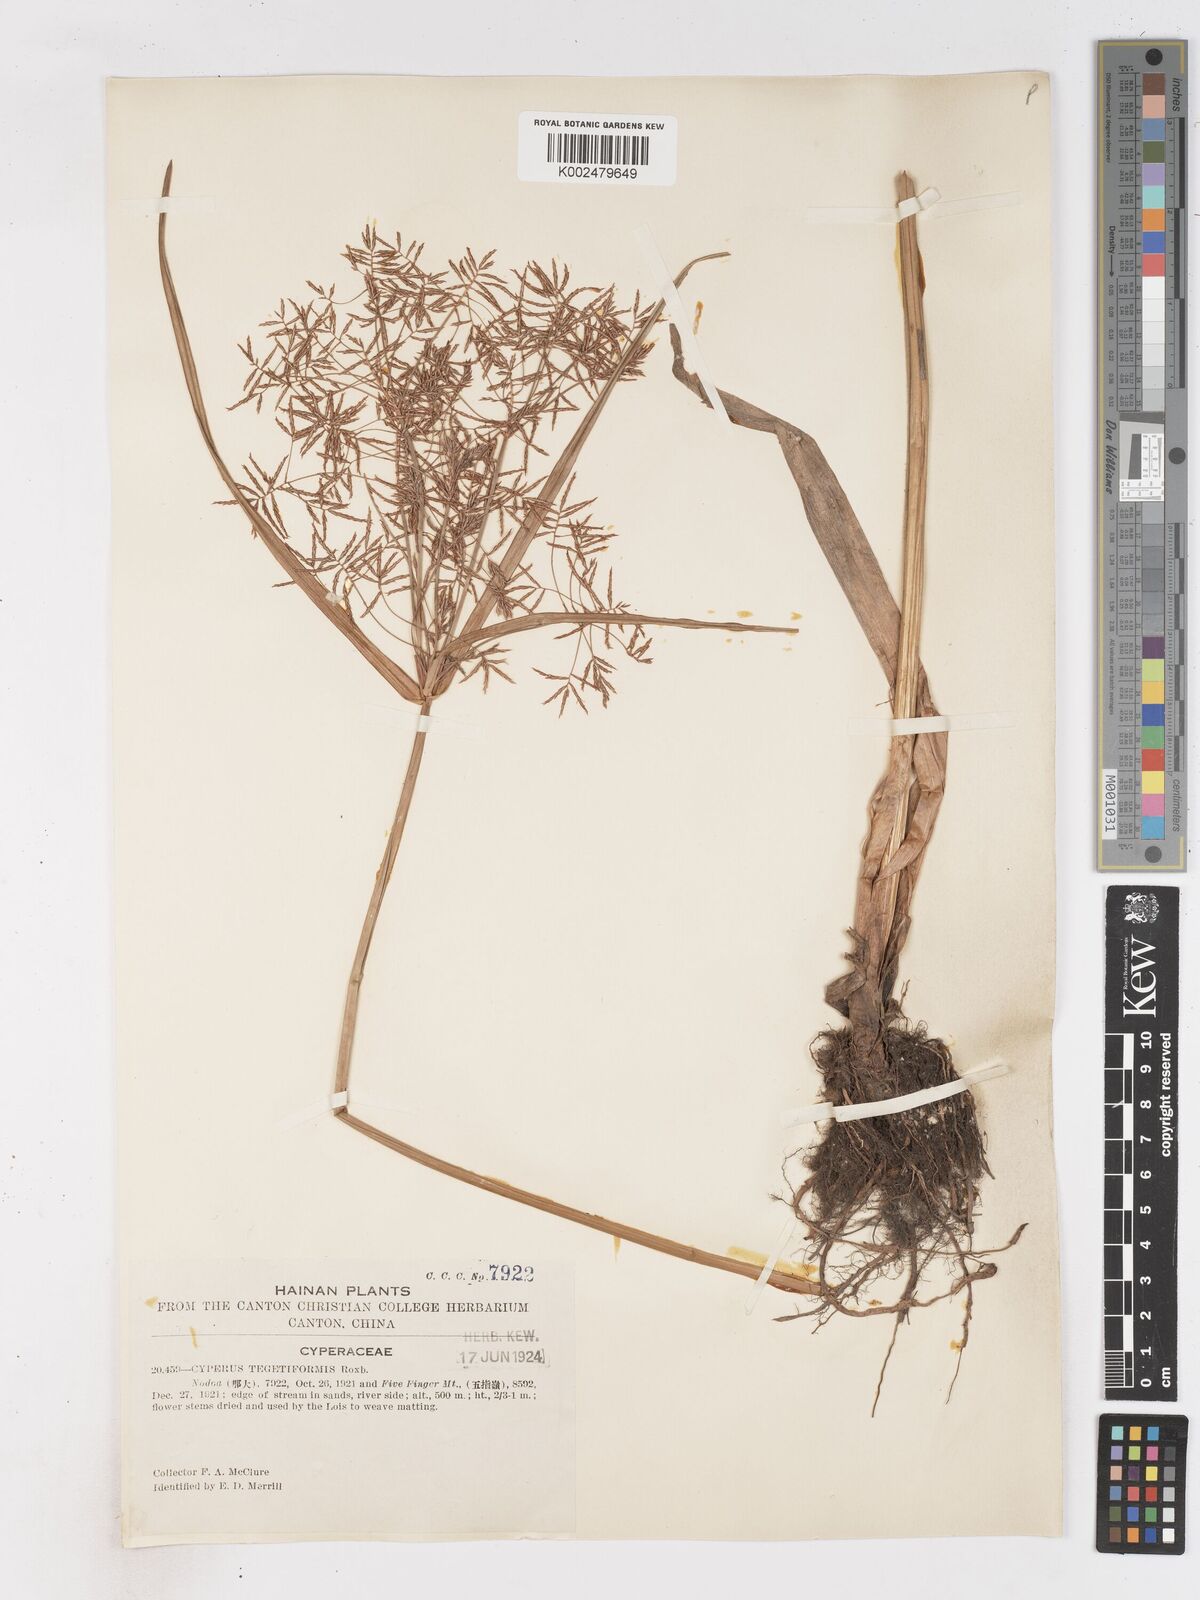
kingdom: Plantae
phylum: Tracheophyta
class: Liliopsida
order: Poales
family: Cyperaceae
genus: Cyperus
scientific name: Cyperus corymbosus
